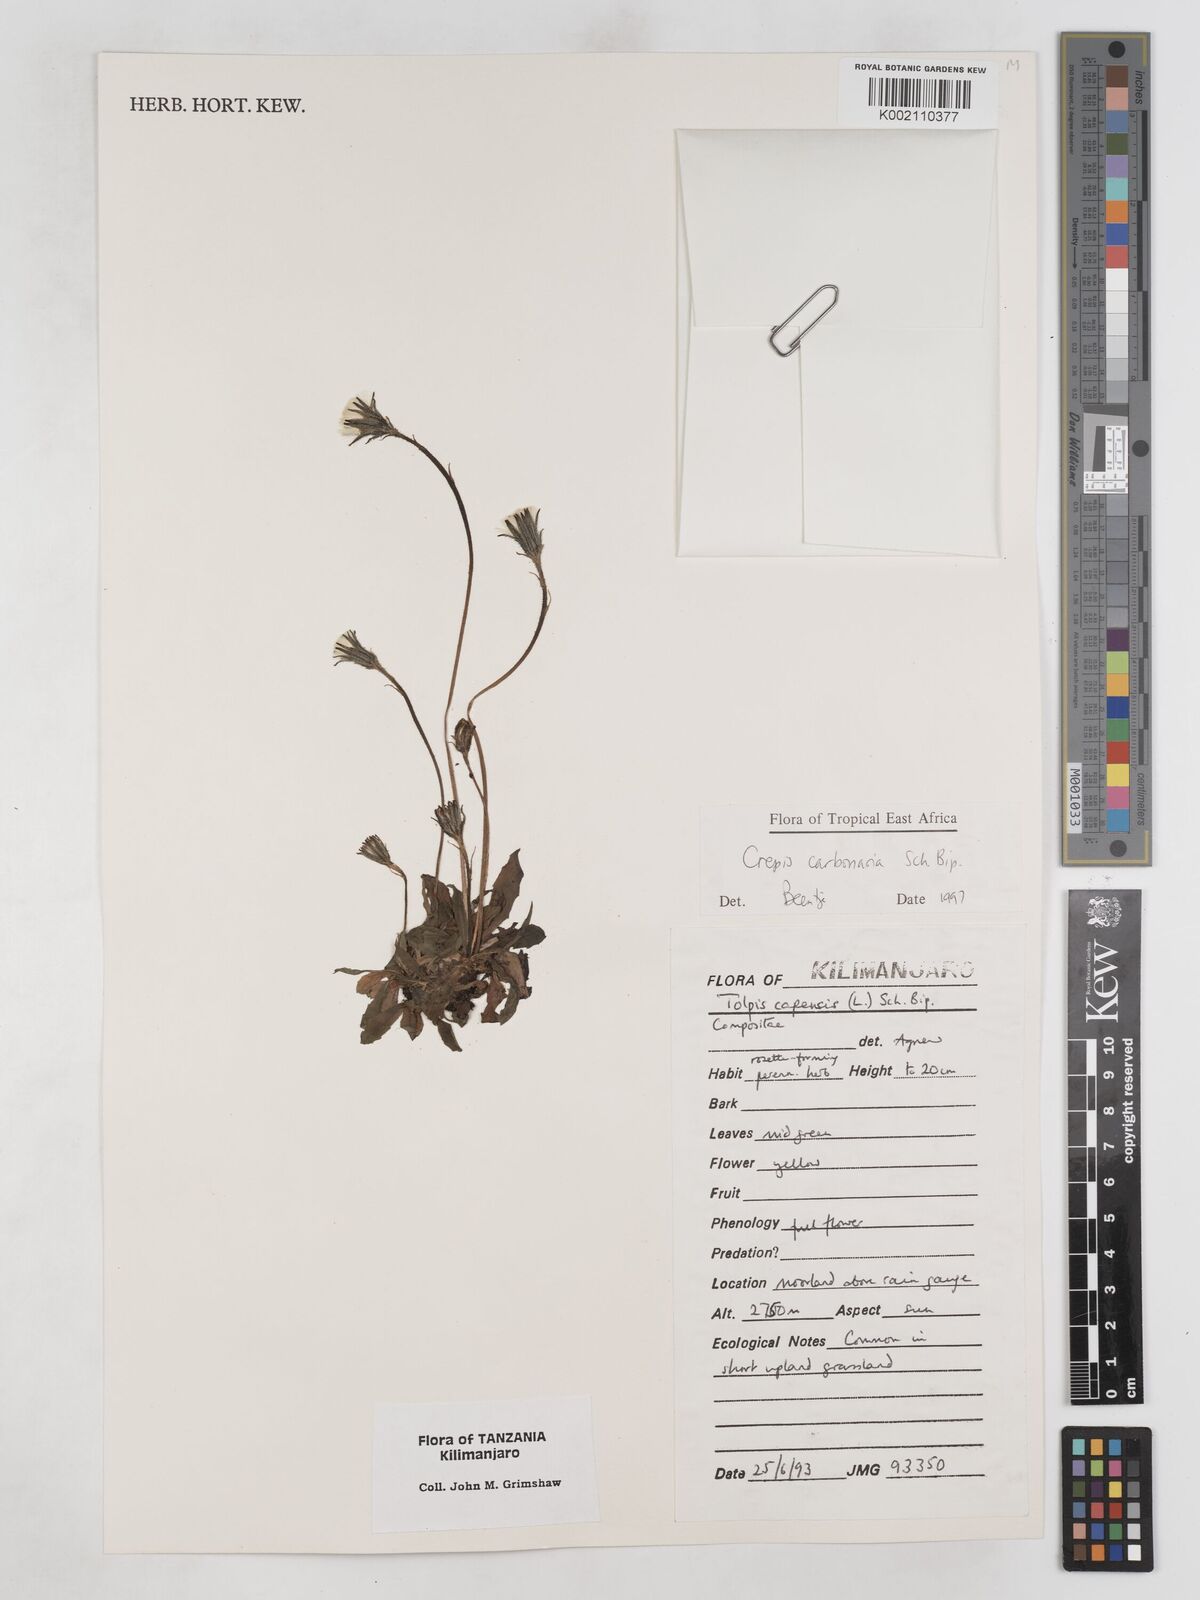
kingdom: Plantae
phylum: Tracheophyta
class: Magnoliopsida
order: Asterales
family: Asteraceae
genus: Crepis
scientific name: Crepis carbonaria
